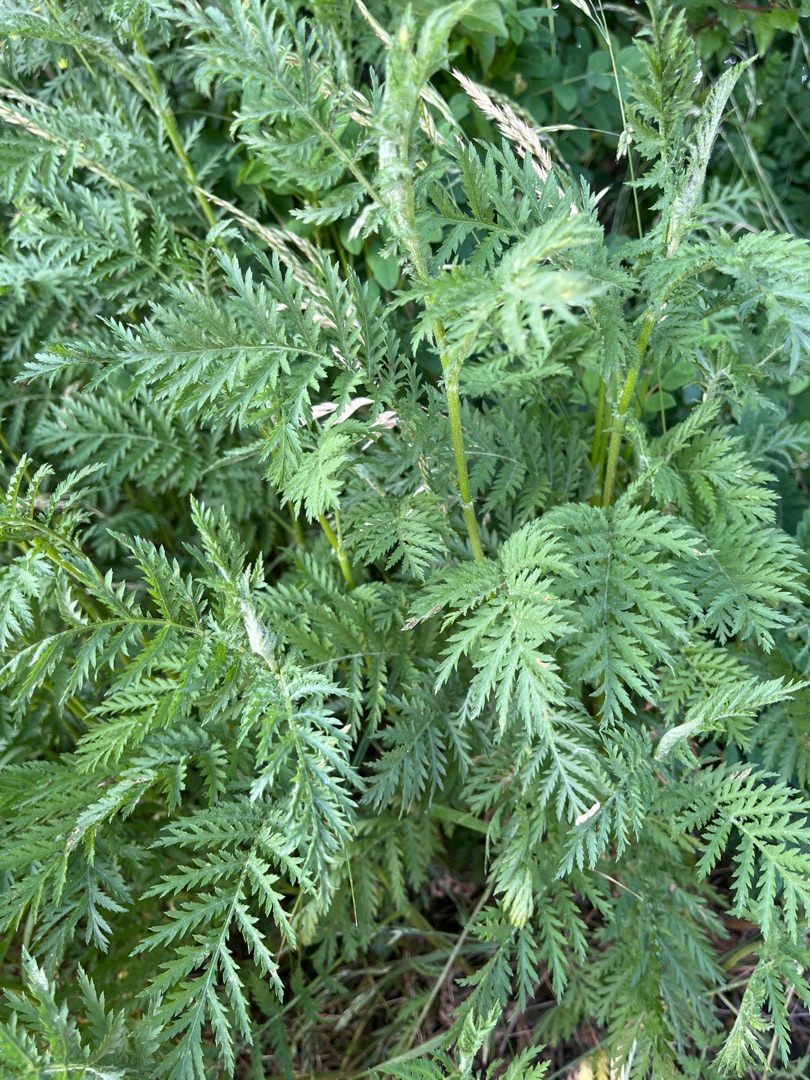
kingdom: Plantae
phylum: Tracheophyta
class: Magnoliopsida
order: Asterales
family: Asteraceae
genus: Tanacetum
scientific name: Tanacetum vulgare
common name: Rejnfan
